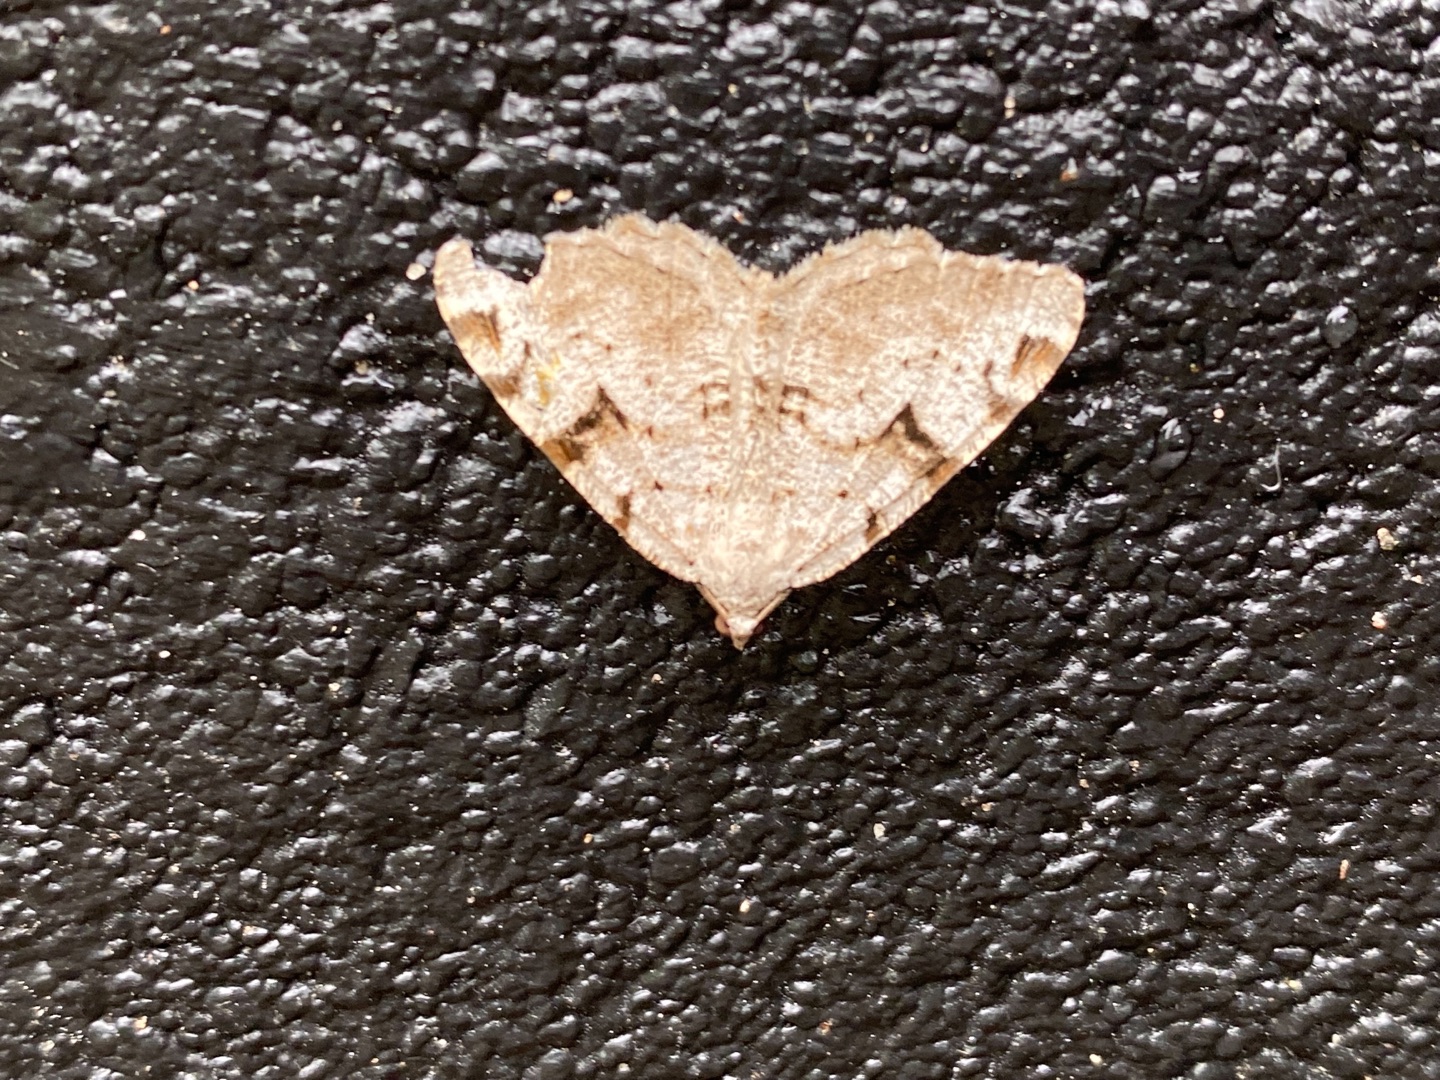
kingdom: Animalia
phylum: Arthropoda
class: Insecta
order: Lepidoptera
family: Geometridae
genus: Macaria
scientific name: Macaria wauaria
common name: Lille stikkelsbærmåler
